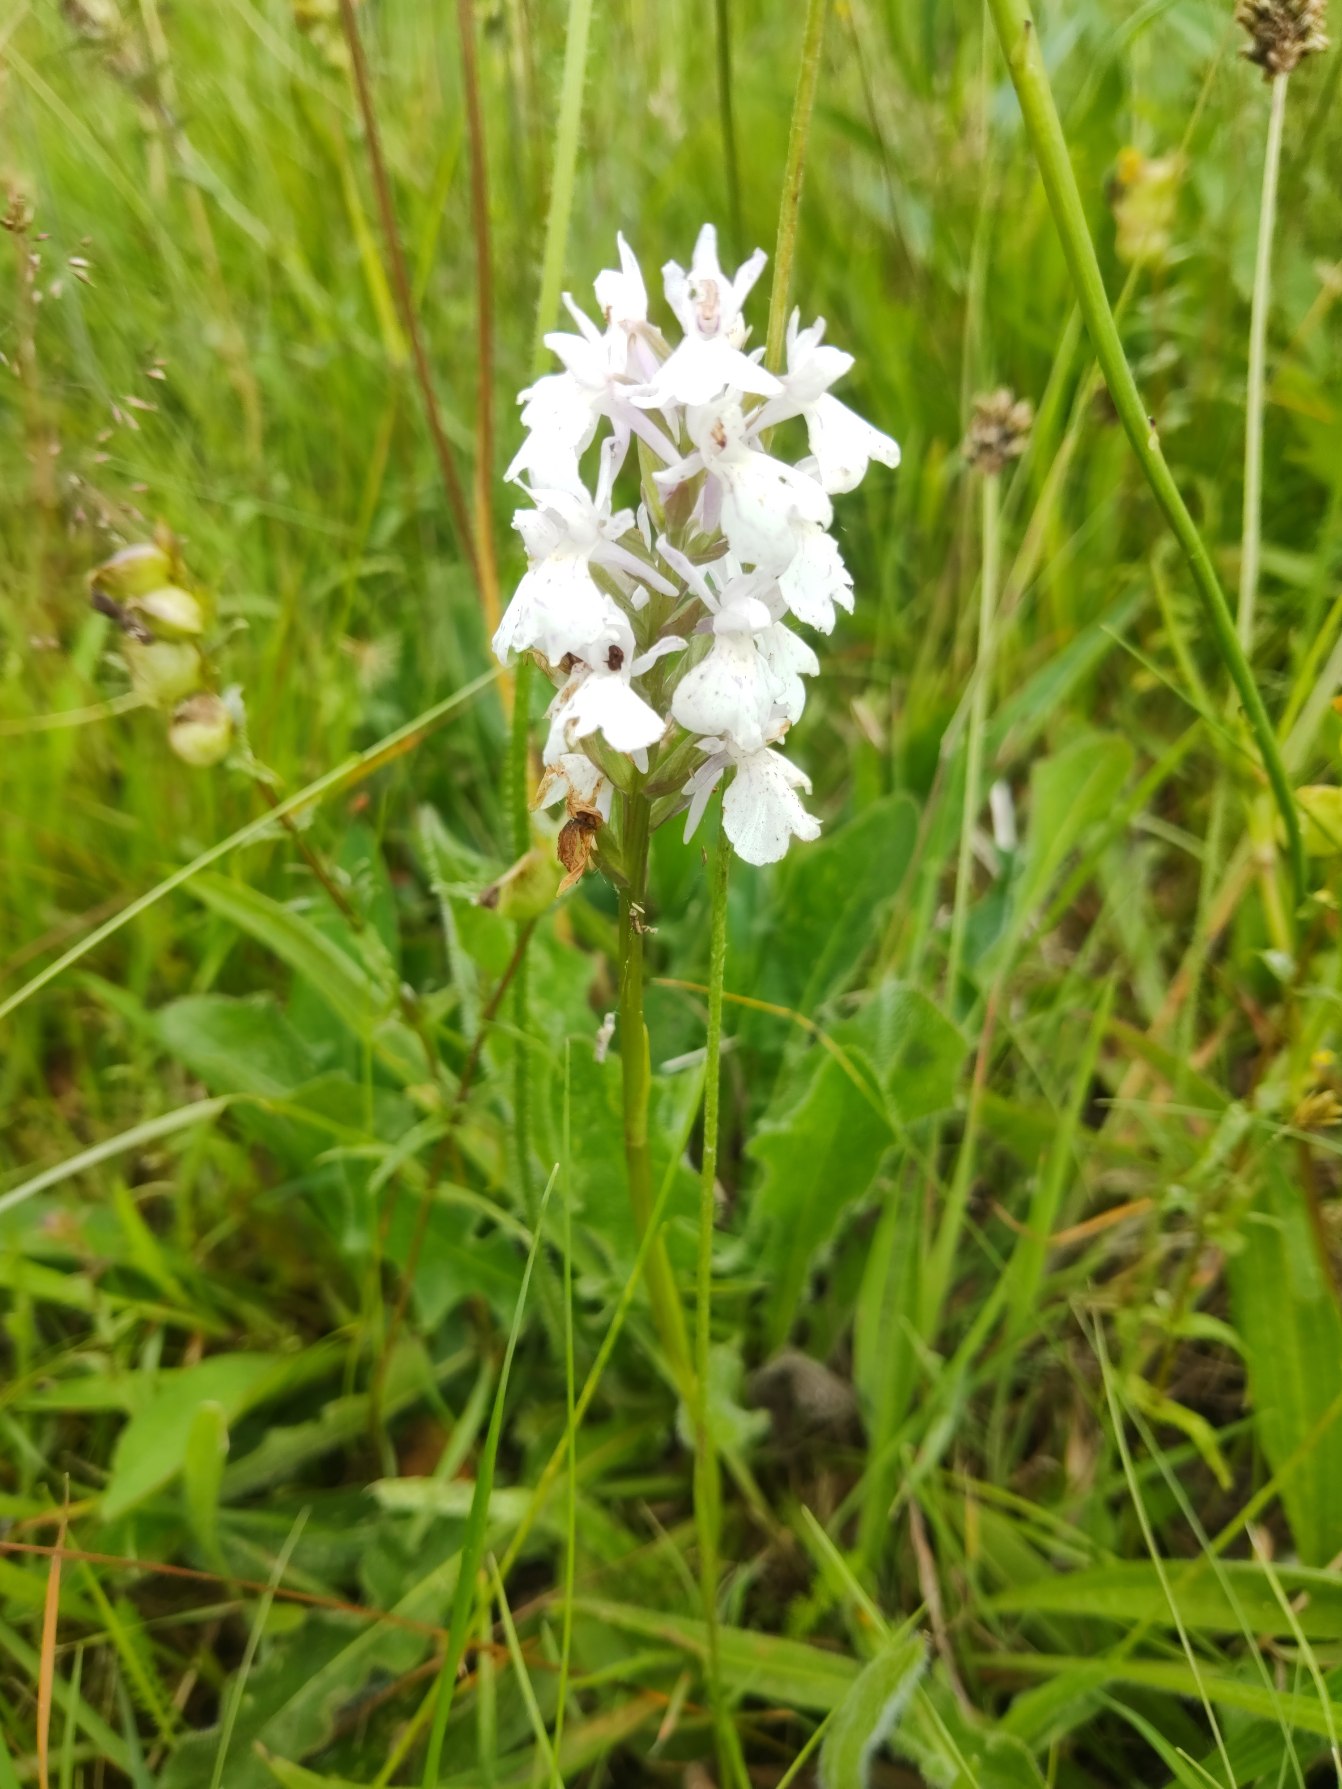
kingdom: Plantae
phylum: Tracheophyta
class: Liliopsida
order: Asparagales
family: Orchidaceae
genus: Dactylorhiza
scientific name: Dactylorhiza maculata
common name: Plettet gøgeurt
